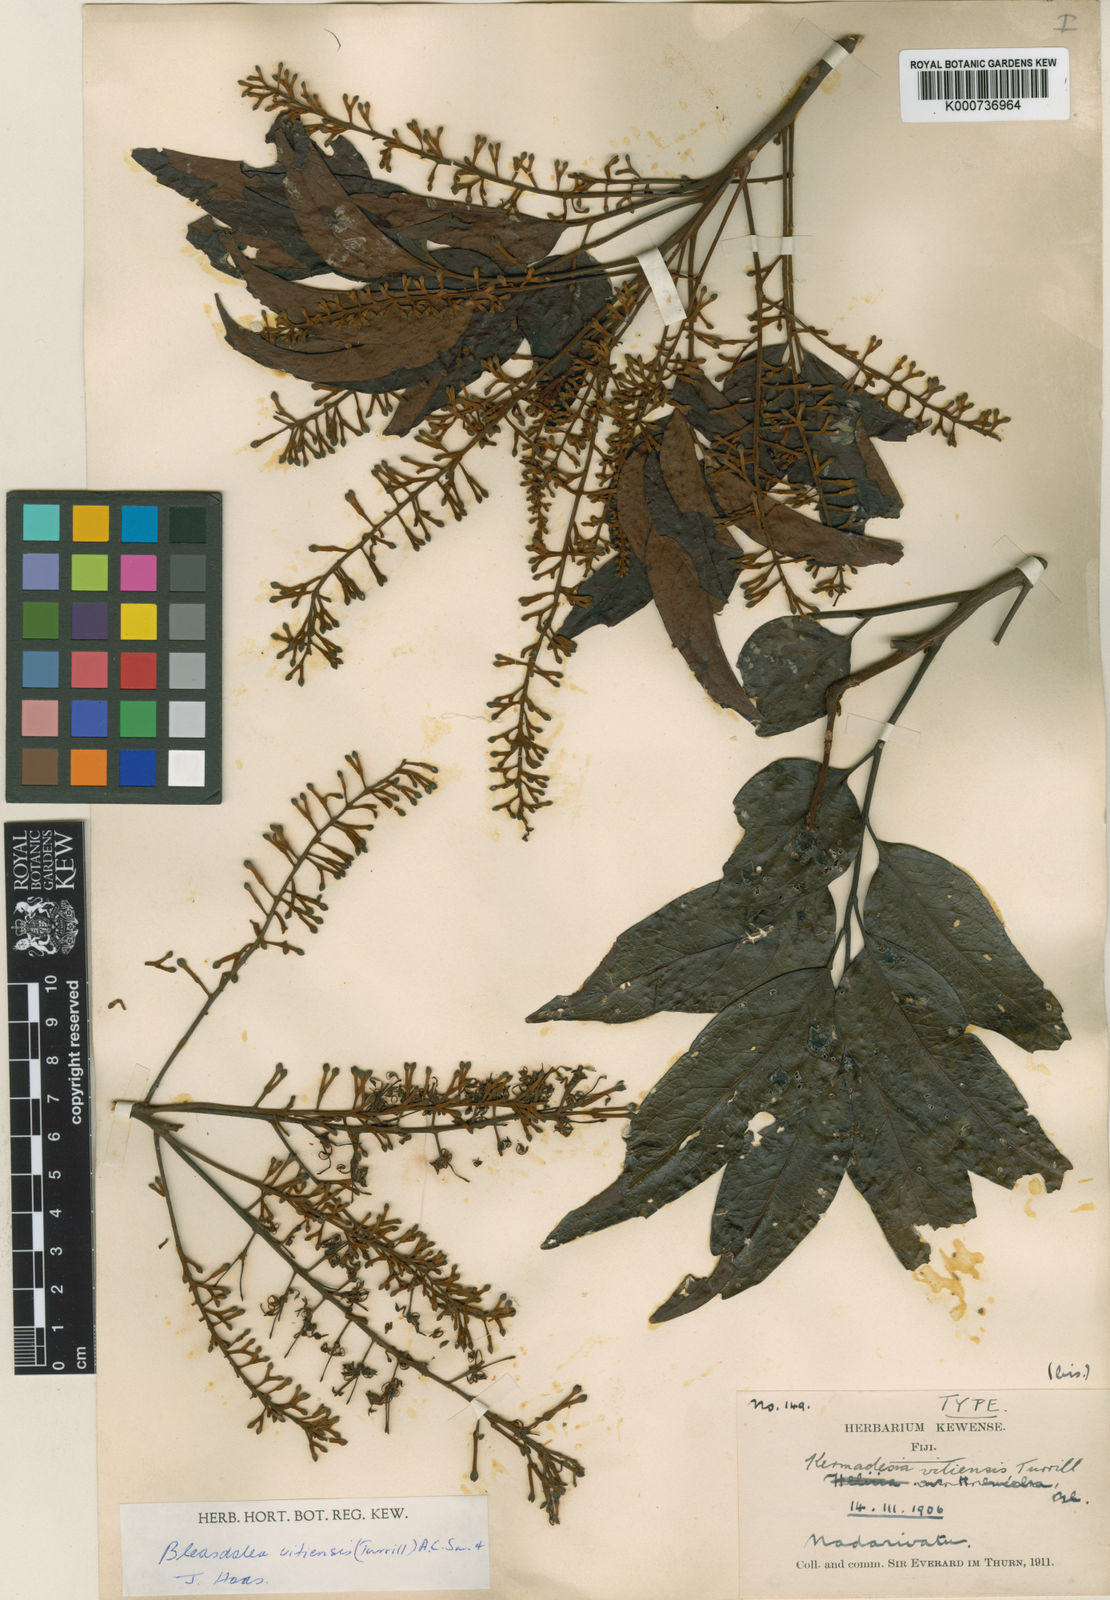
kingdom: Plantae
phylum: Tracheophyta
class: Magnoliopsida
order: Proteales
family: Proteaceae
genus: Turrillia
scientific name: Turrillia vitiensis
